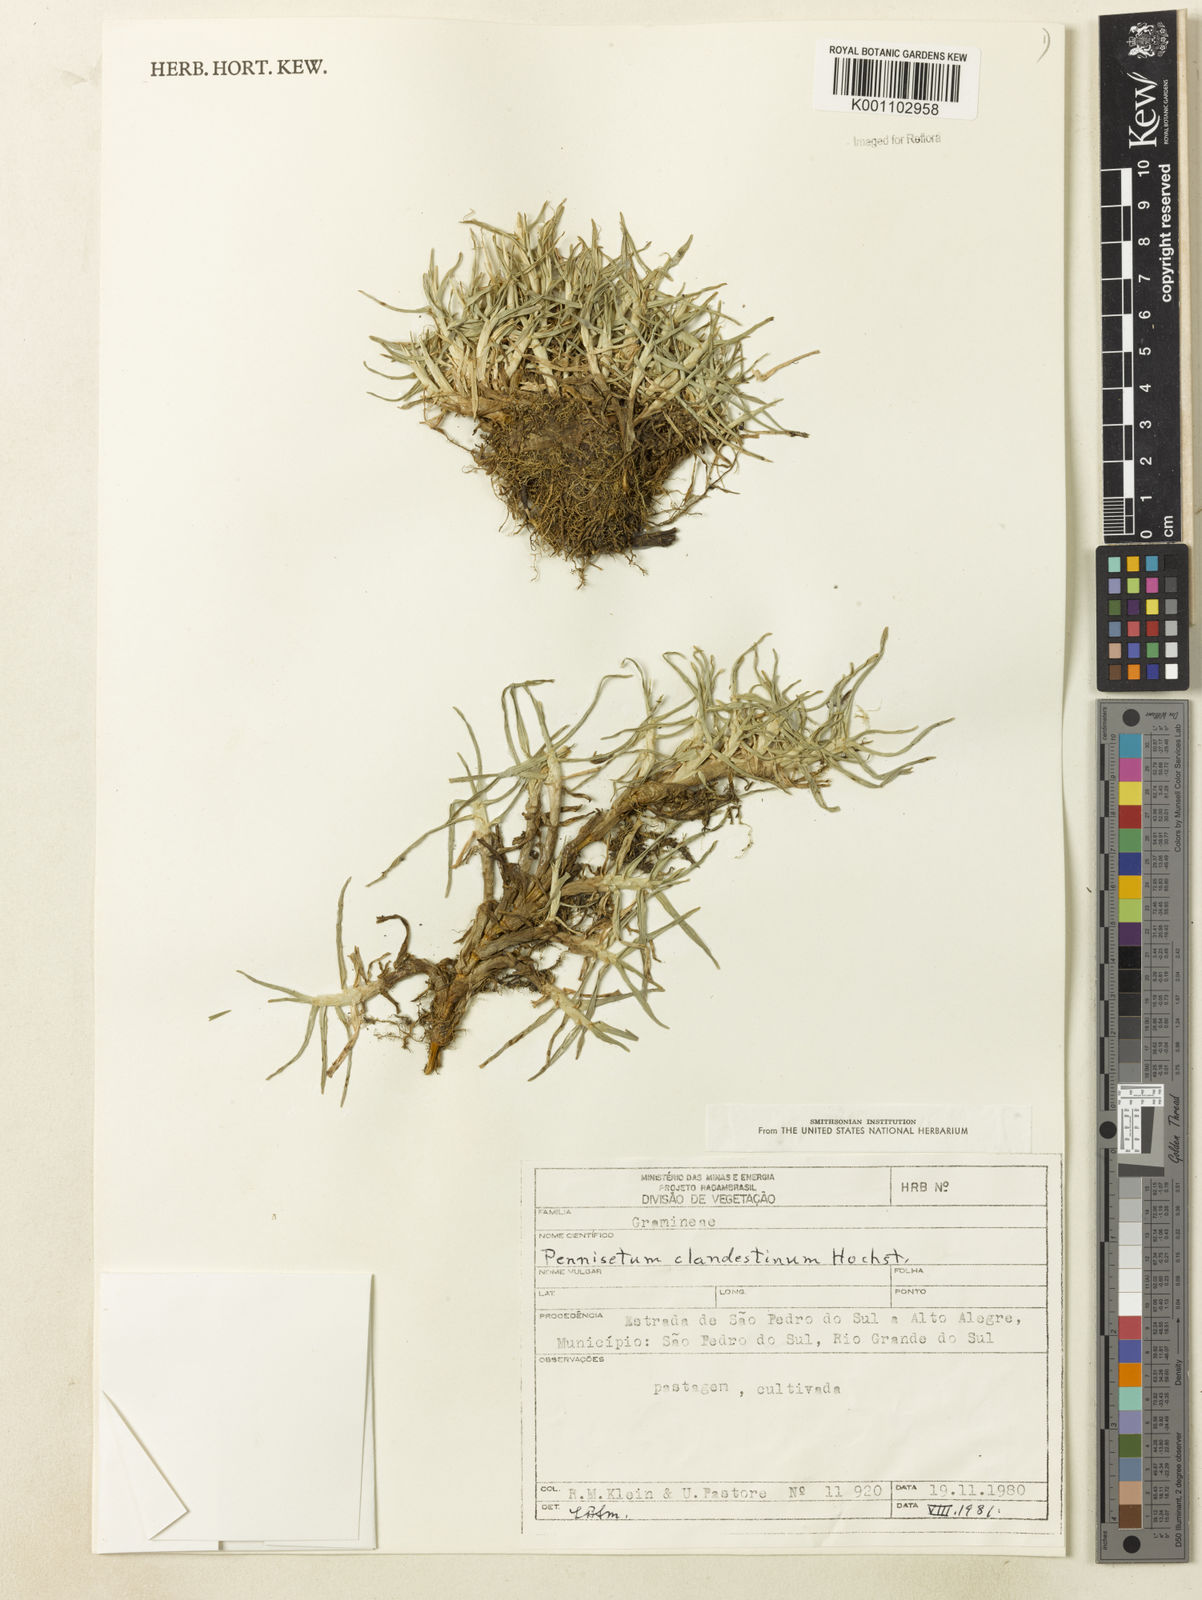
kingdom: Plantae
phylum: Tracheophyta
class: Liliopsida
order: Poales
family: Poaceae
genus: Cenchrus
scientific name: Cenchrus clandestinus
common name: Kikuyugrass
